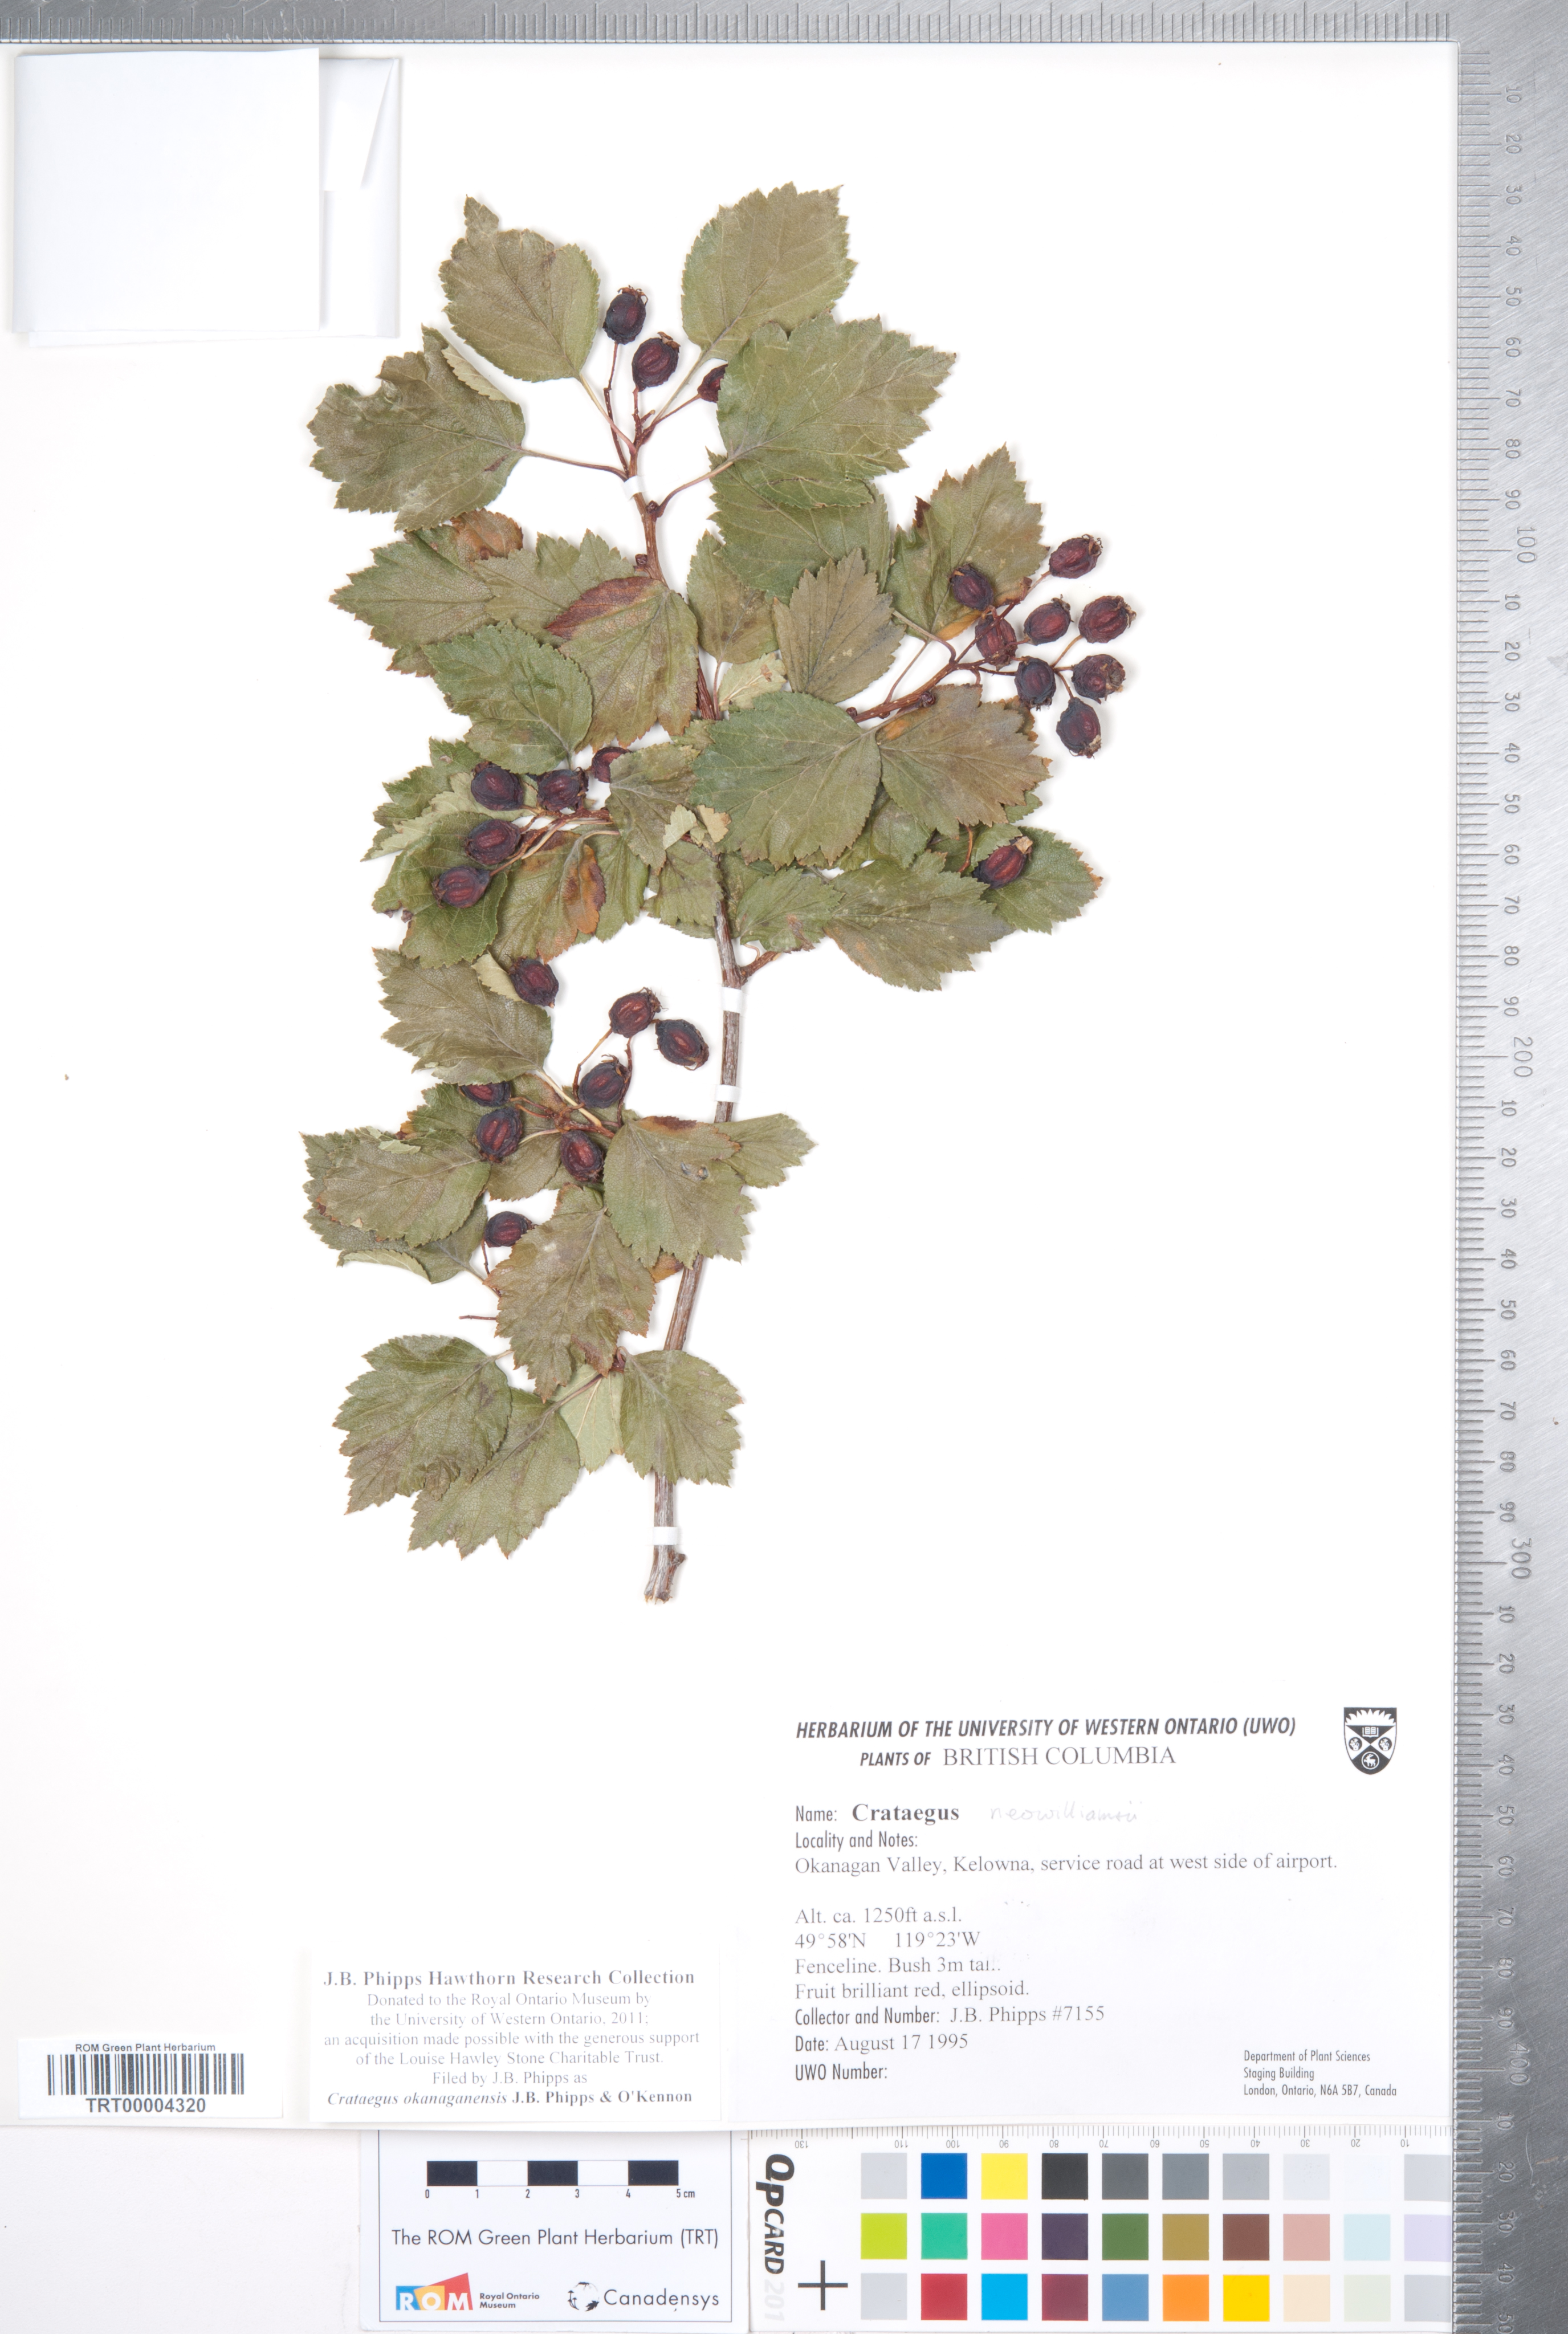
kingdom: Plantae
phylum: Tracheophyta
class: Magnoliopsida
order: Rosales
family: Rosaceae
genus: Crataegus
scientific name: Crataegus okanaganensis
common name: Okanagan valley hawthorn
